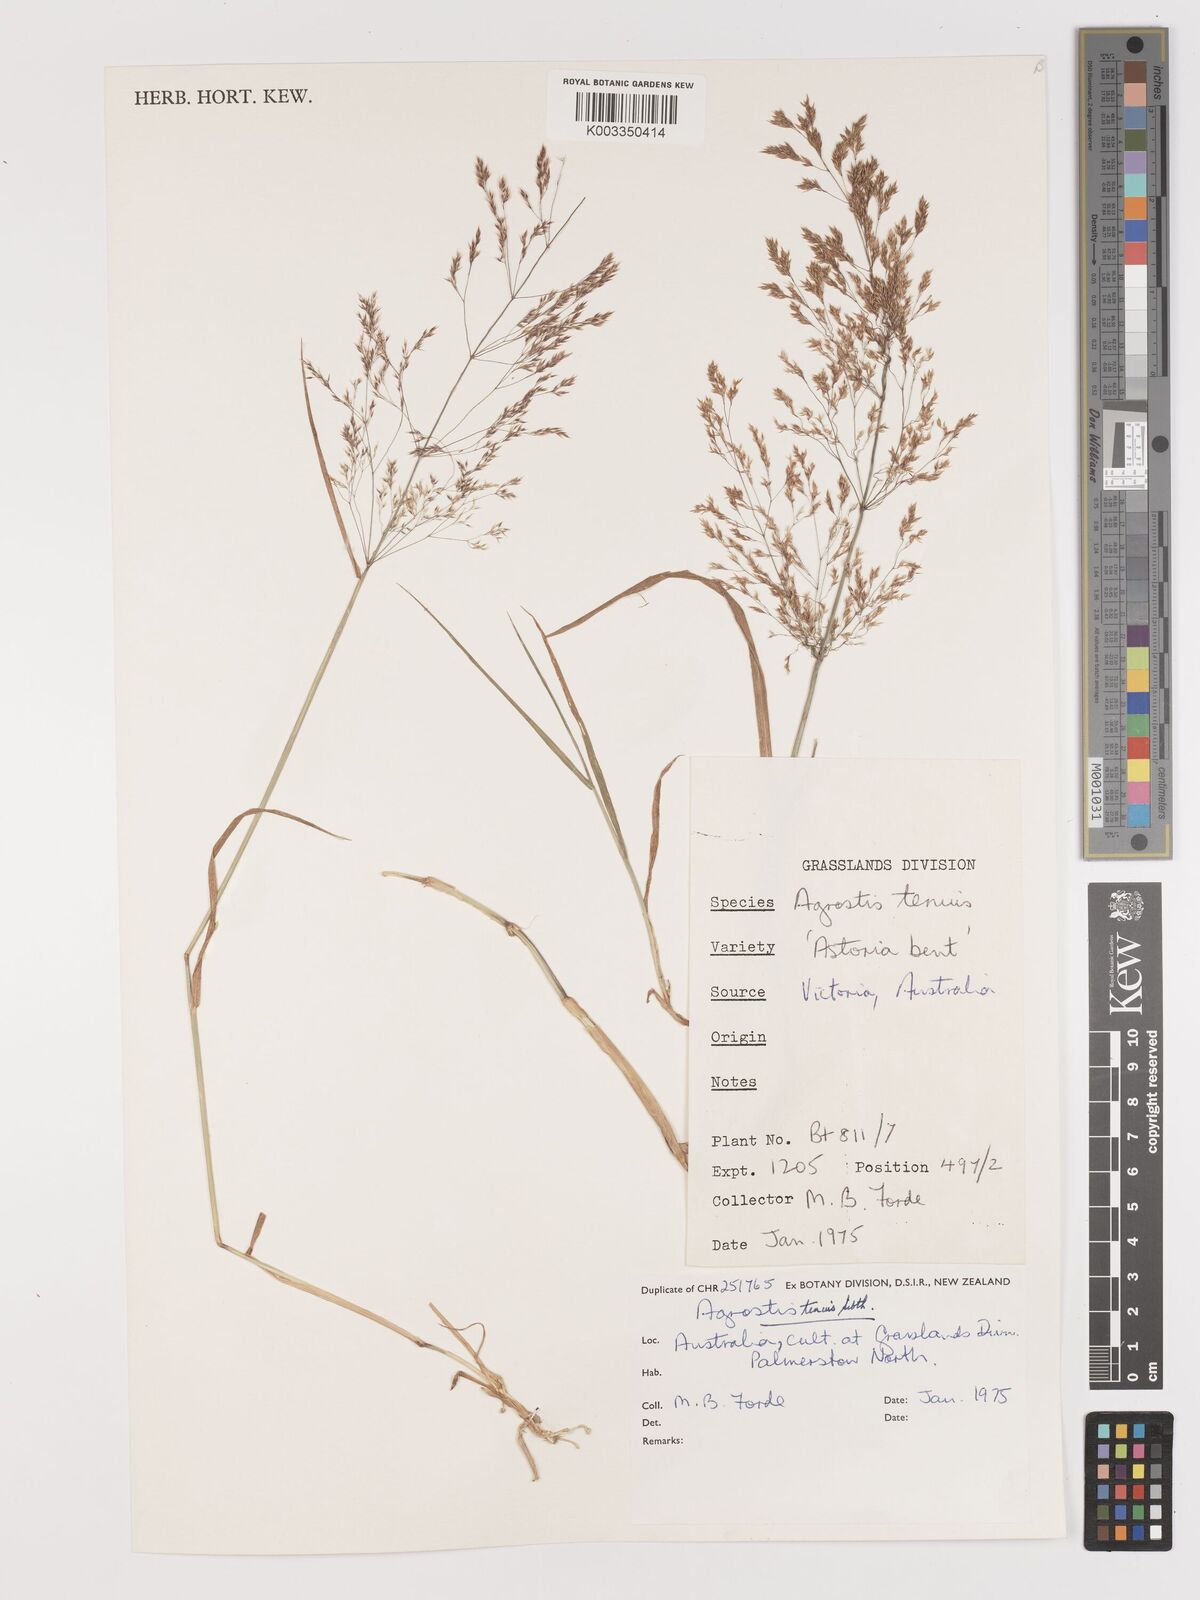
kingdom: Plantae
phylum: Tracheophyta
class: Liliopsida
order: Poales
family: Poaceae
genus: Agrostis
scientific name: Agrostis capillaris
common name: Colonial bentgrass
